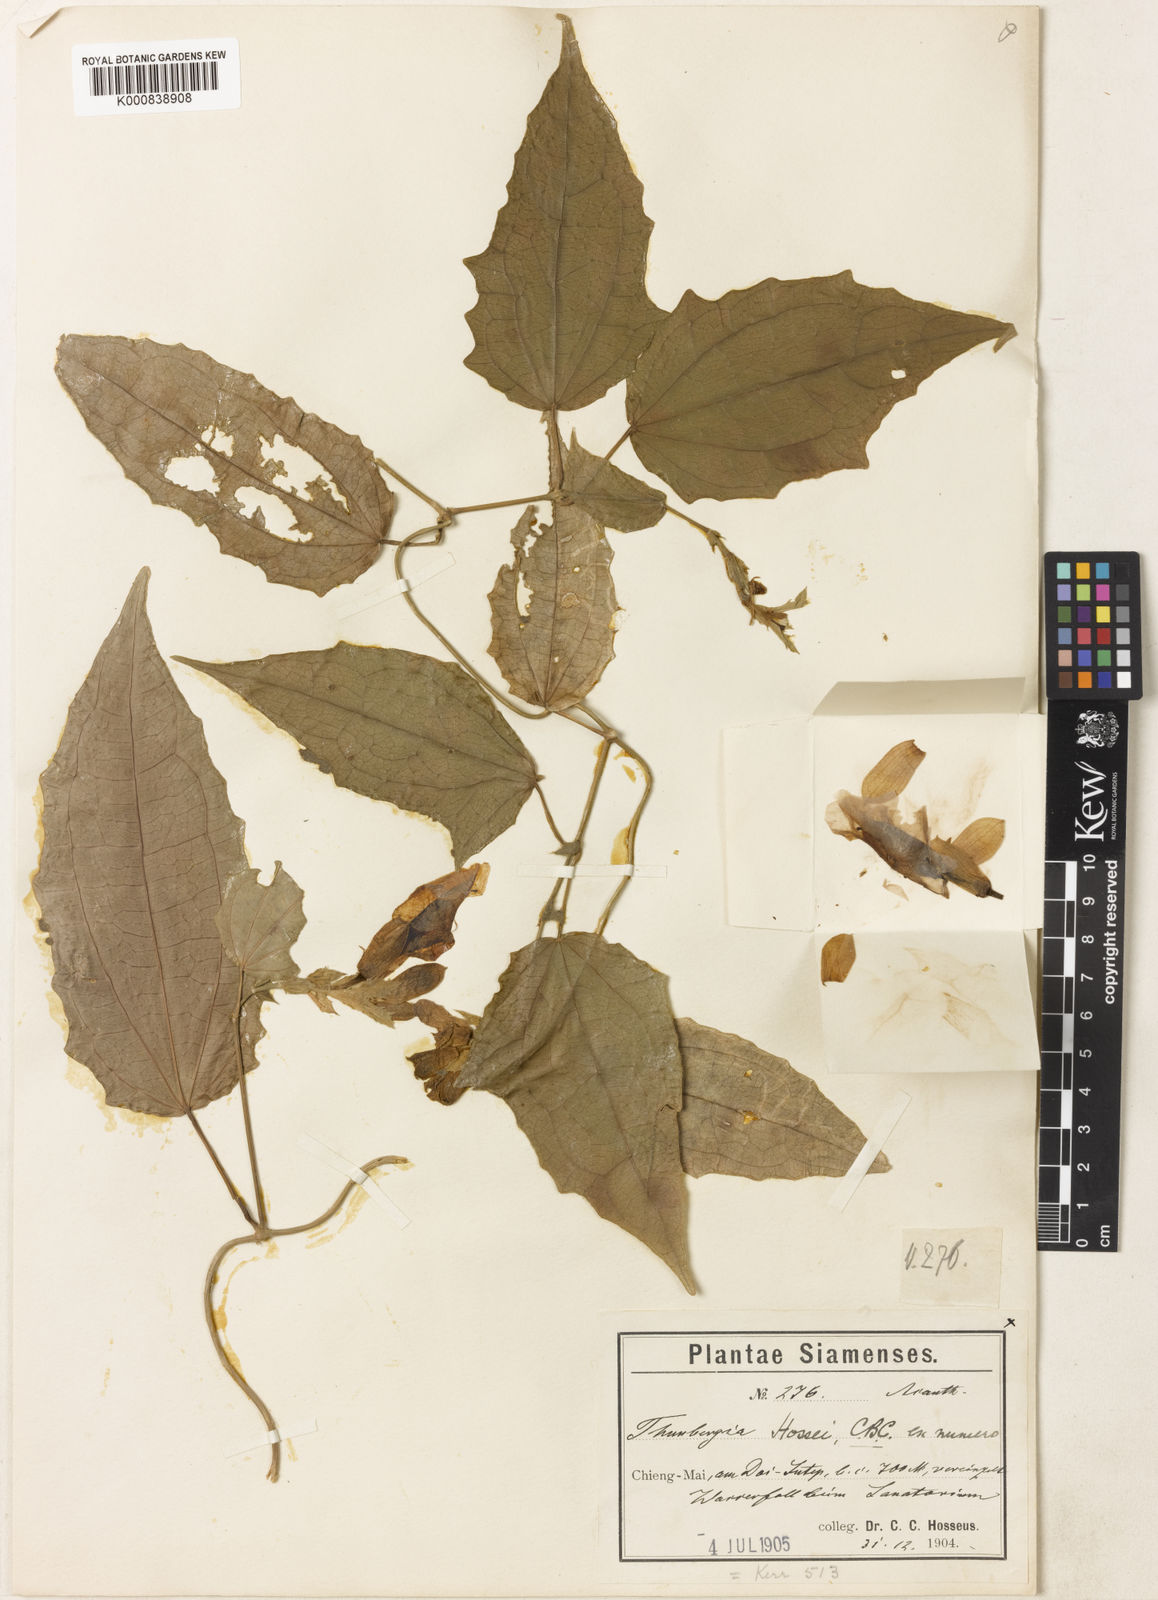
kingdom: Plantae
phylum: Tracheophyta
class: Magnoliopsida
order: Lamiales
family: Acanthaceae
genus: Thunbergia
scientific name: Thunbergia hossei
